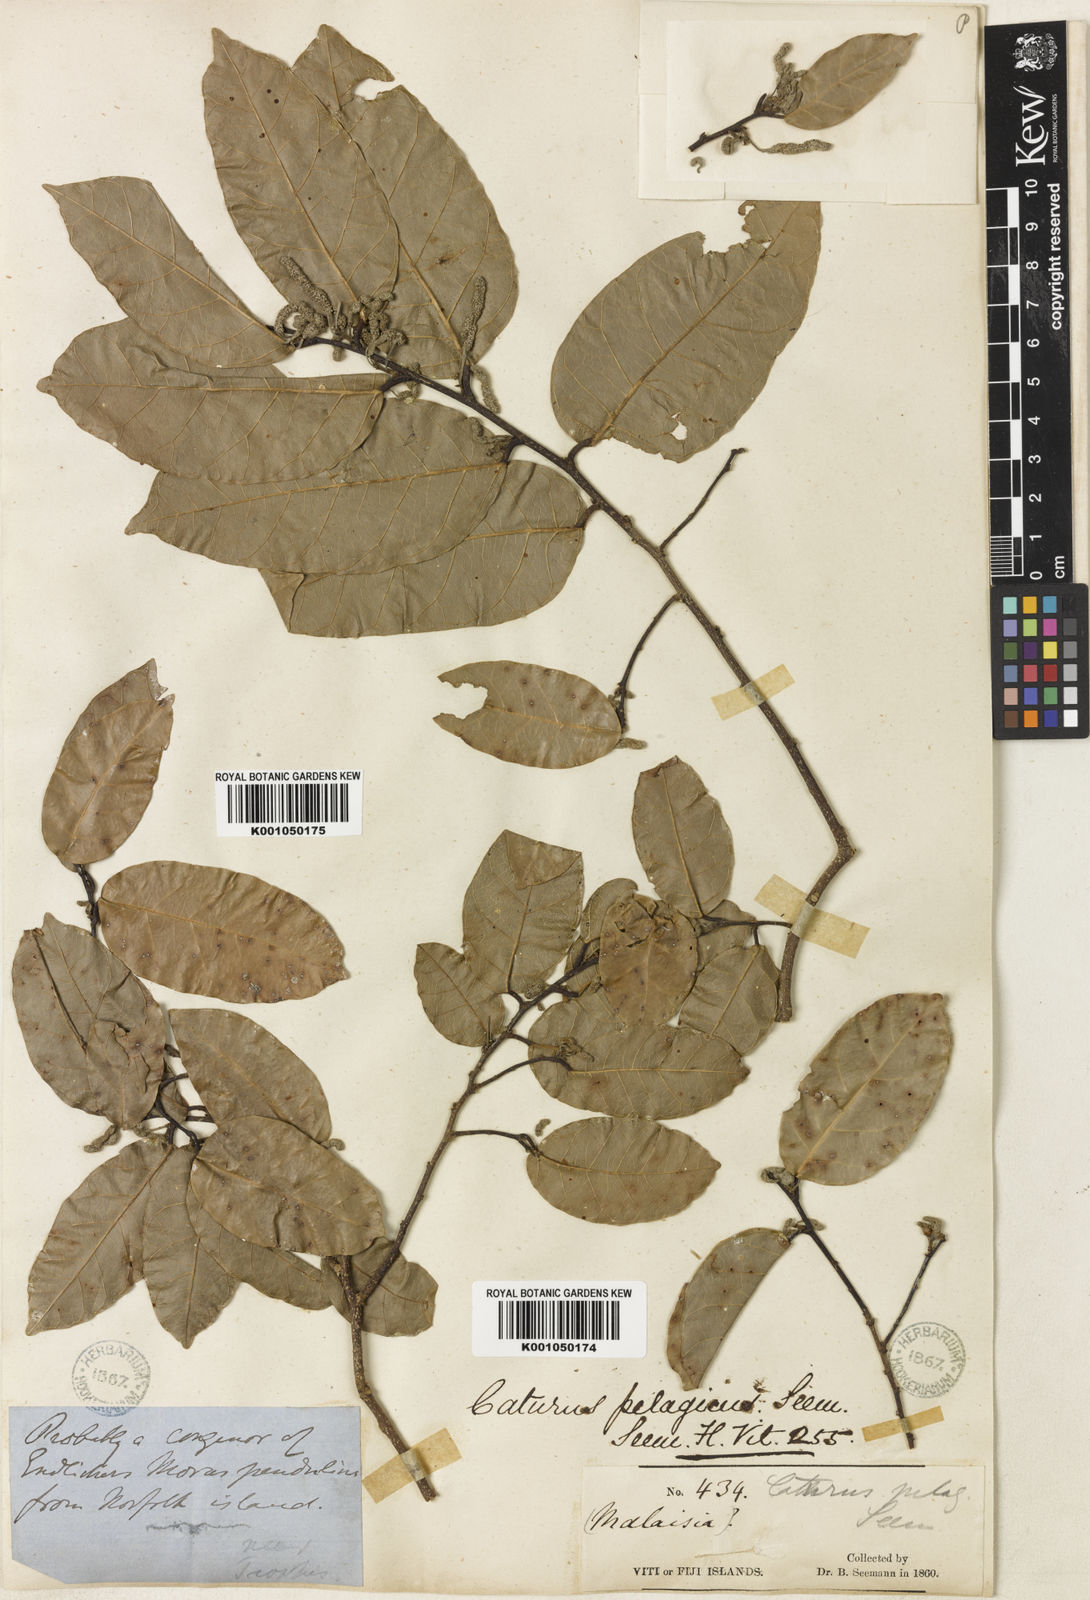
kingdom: Plantae
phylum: Tracheophyta
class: Magnoliopsida
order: Rosales
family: Moraceae
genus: Malaisia
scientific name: Malaisia scandens
